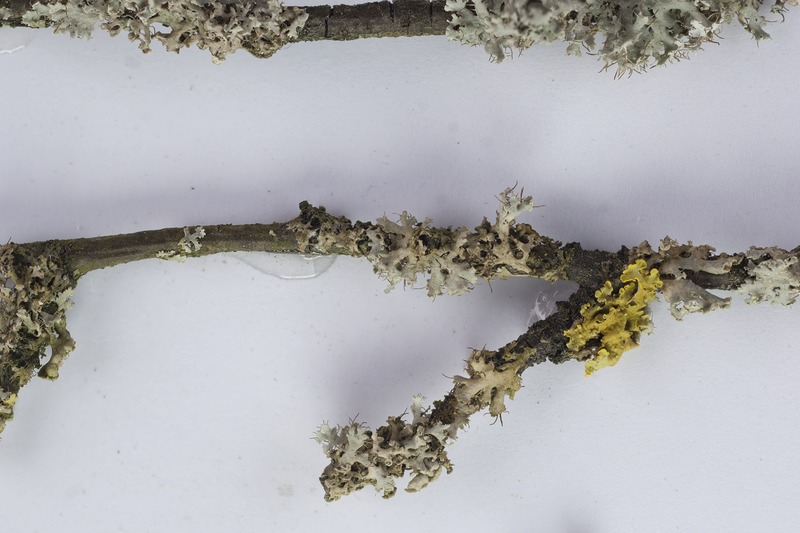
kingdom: Fungi
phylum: Ascomycota
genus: Trichoconis
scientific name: Trichoconis physciicola
